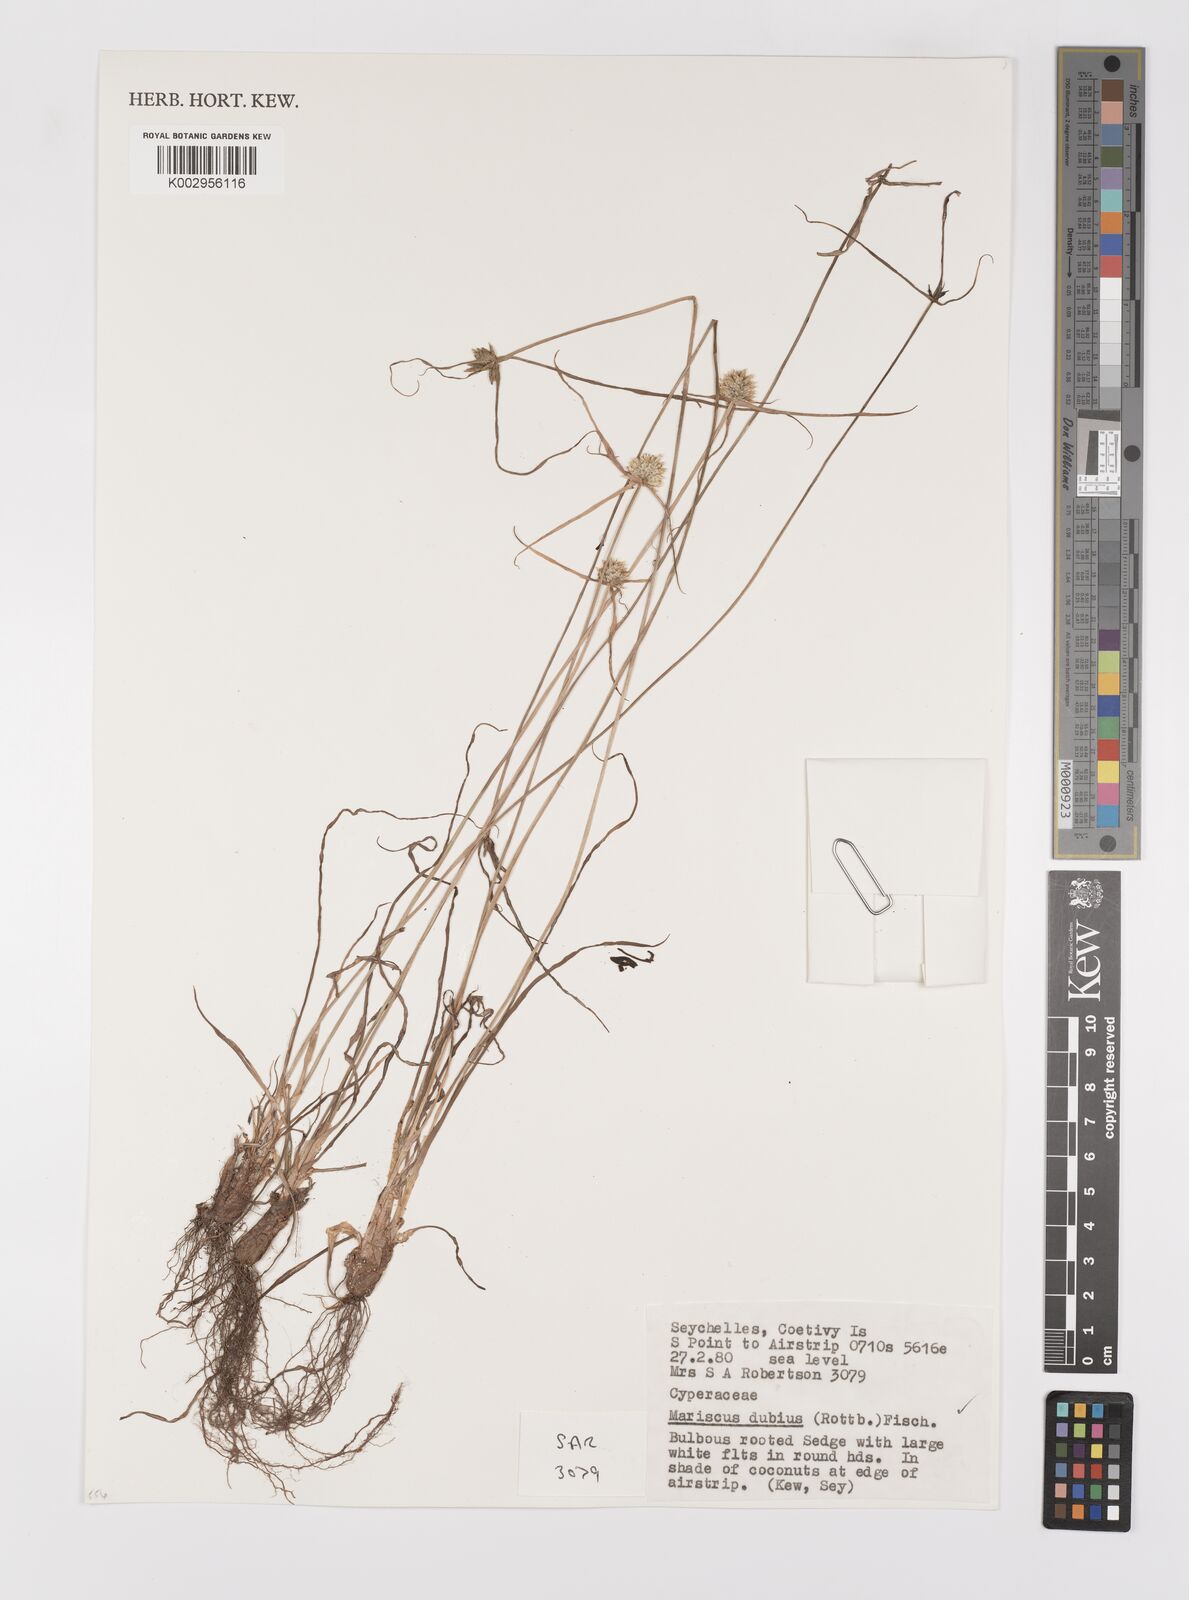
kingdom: Plantae
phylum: Tracheophyta
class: Liliopsida
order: Poales
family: Cyperaceae
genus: Cyperus
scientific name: Cyperus dubius
